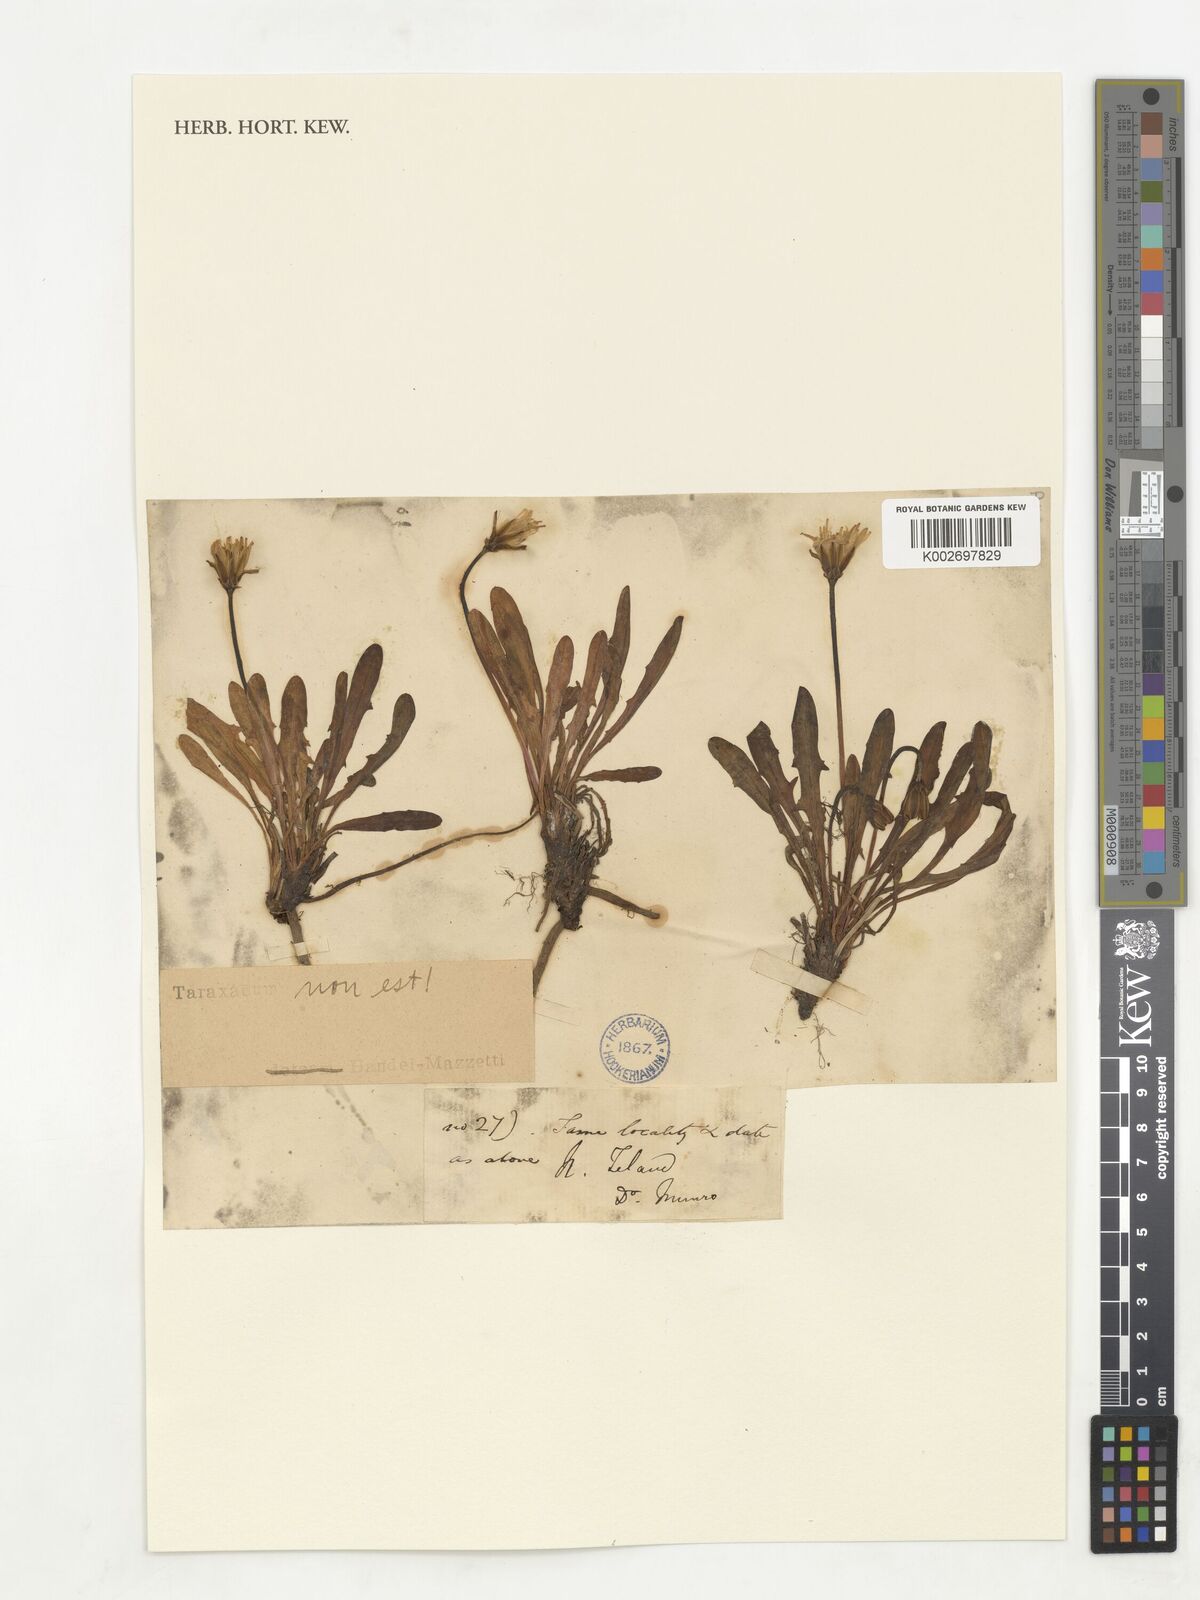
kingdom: Plantae
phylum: Tracheophyta
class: Magnoliopsida
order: Asterales
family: Asteraceae
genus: Taraxacum
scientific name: Taraxacum
